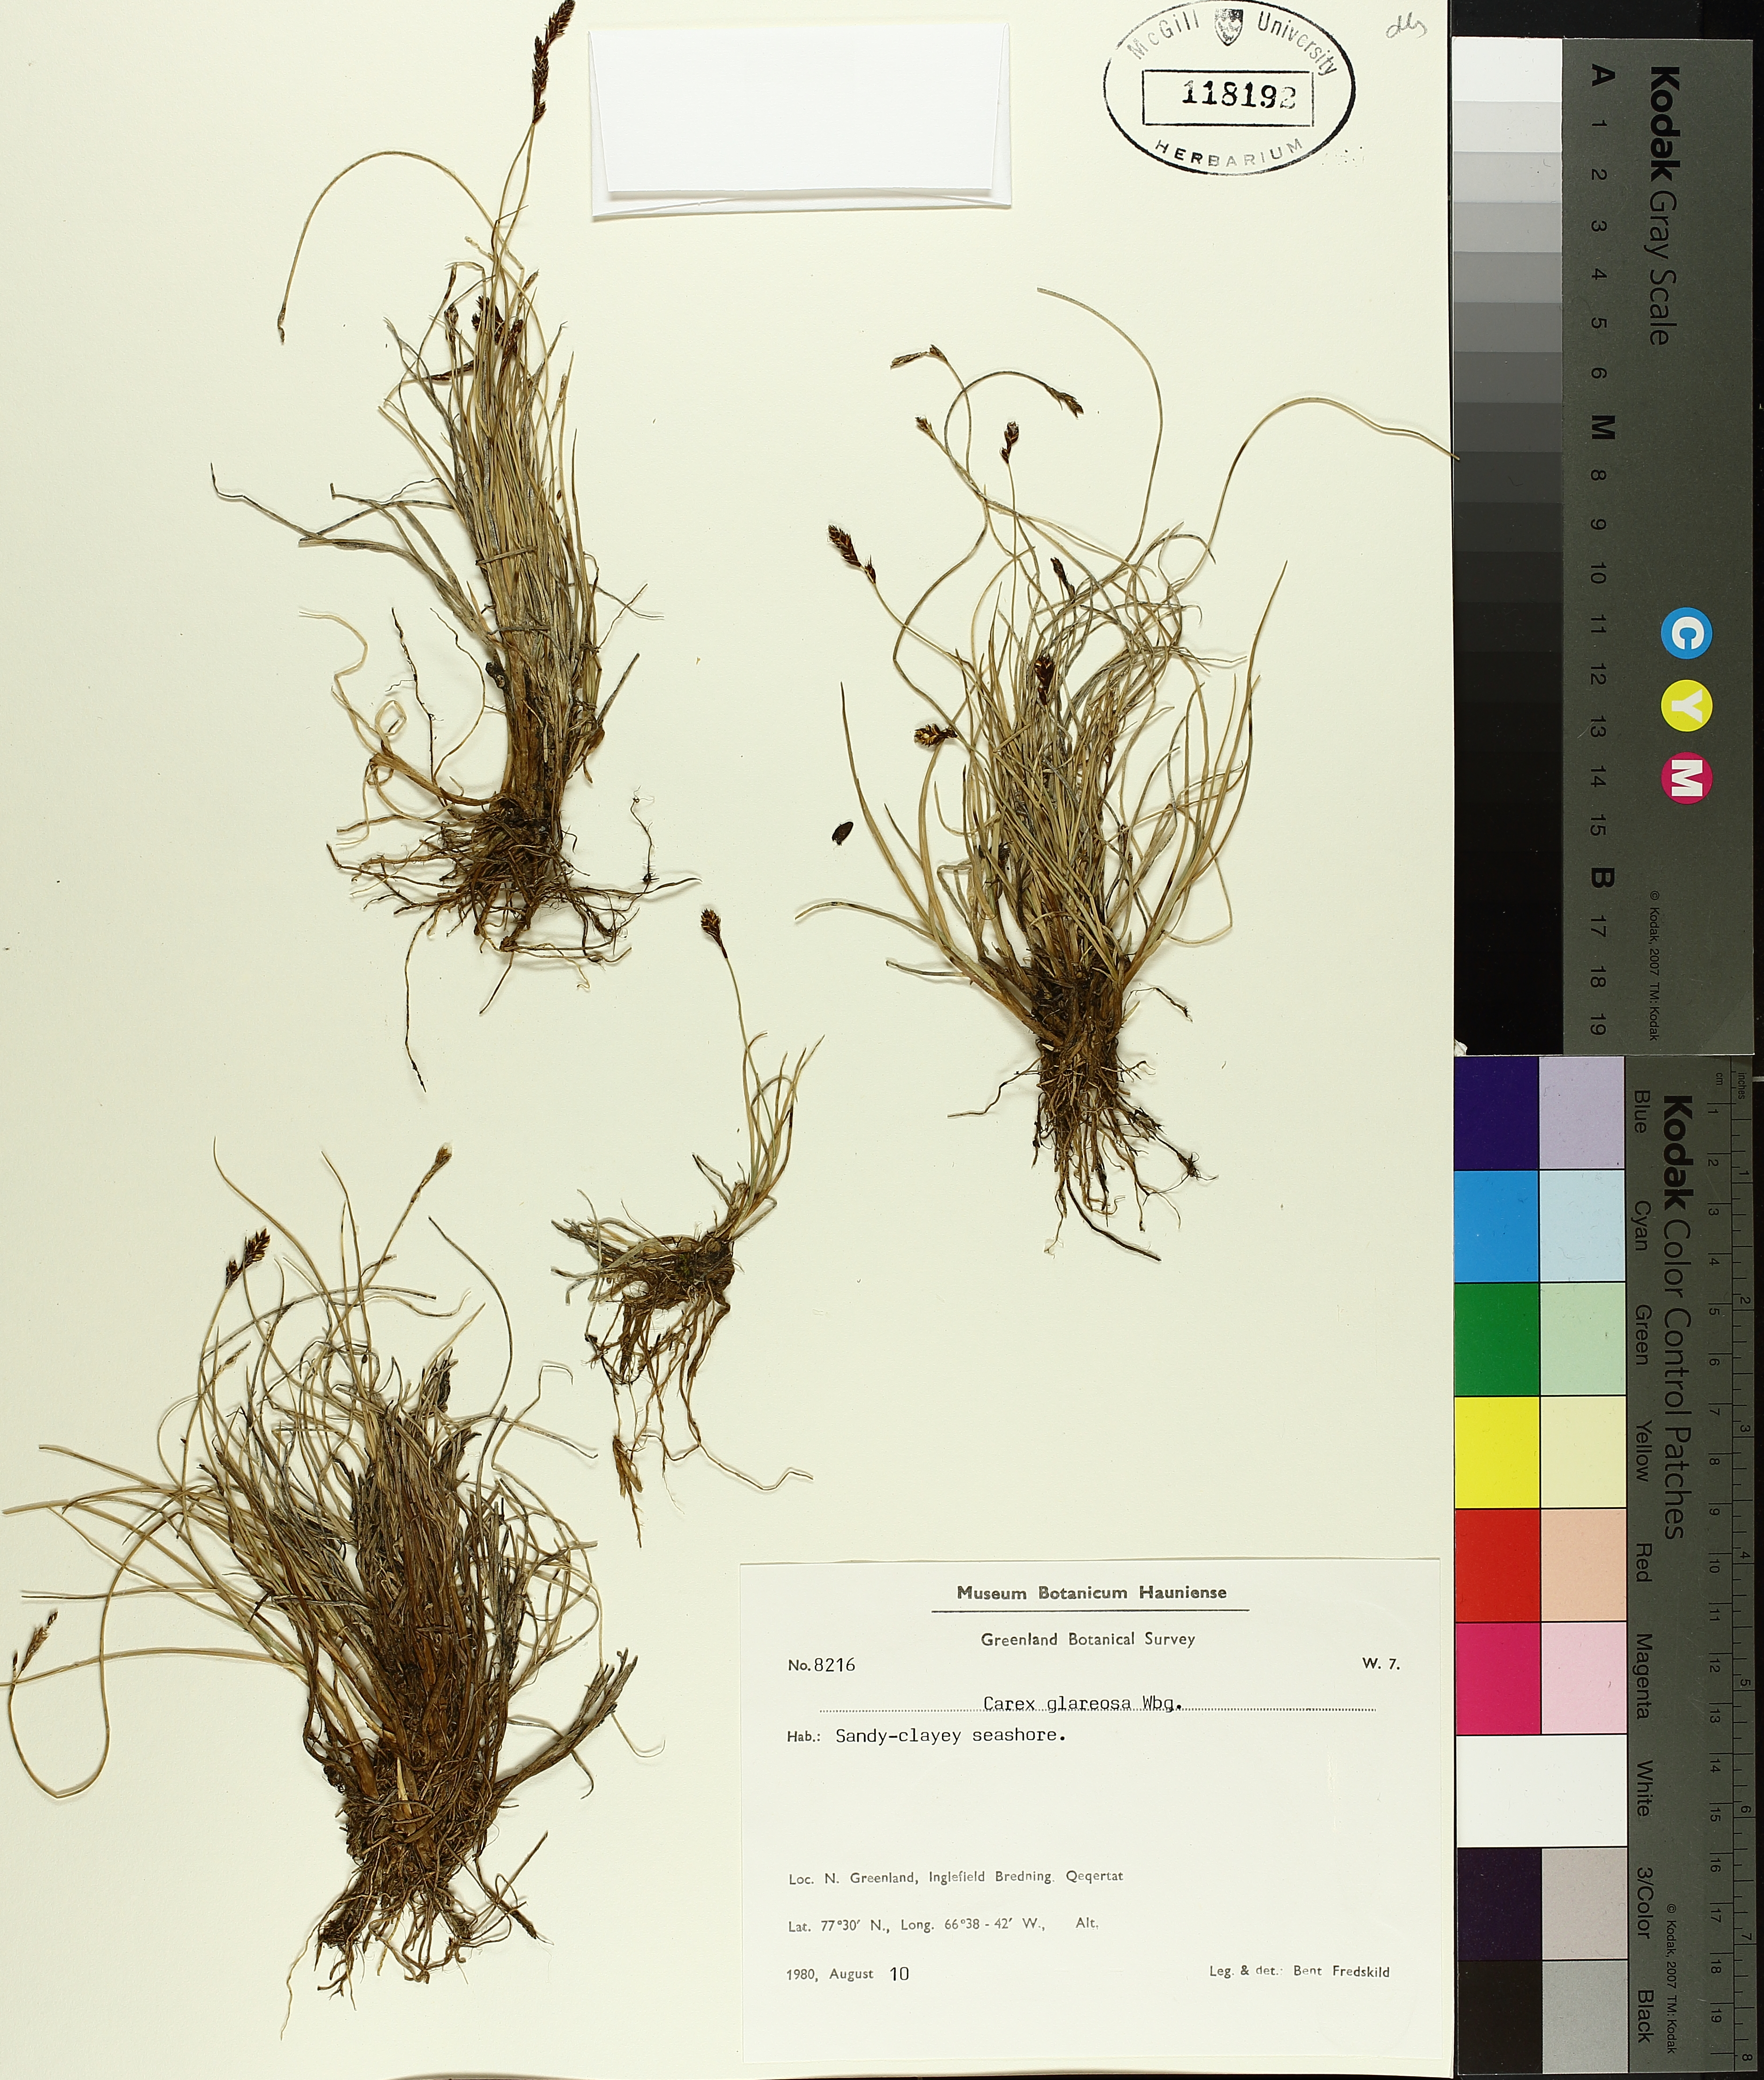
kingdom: Plantae
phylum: Tracheophyta
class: Liliopsida
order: Poales
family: Cyperaceae
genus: Carex
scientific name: Carex glareosa
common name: Clustered sedge
